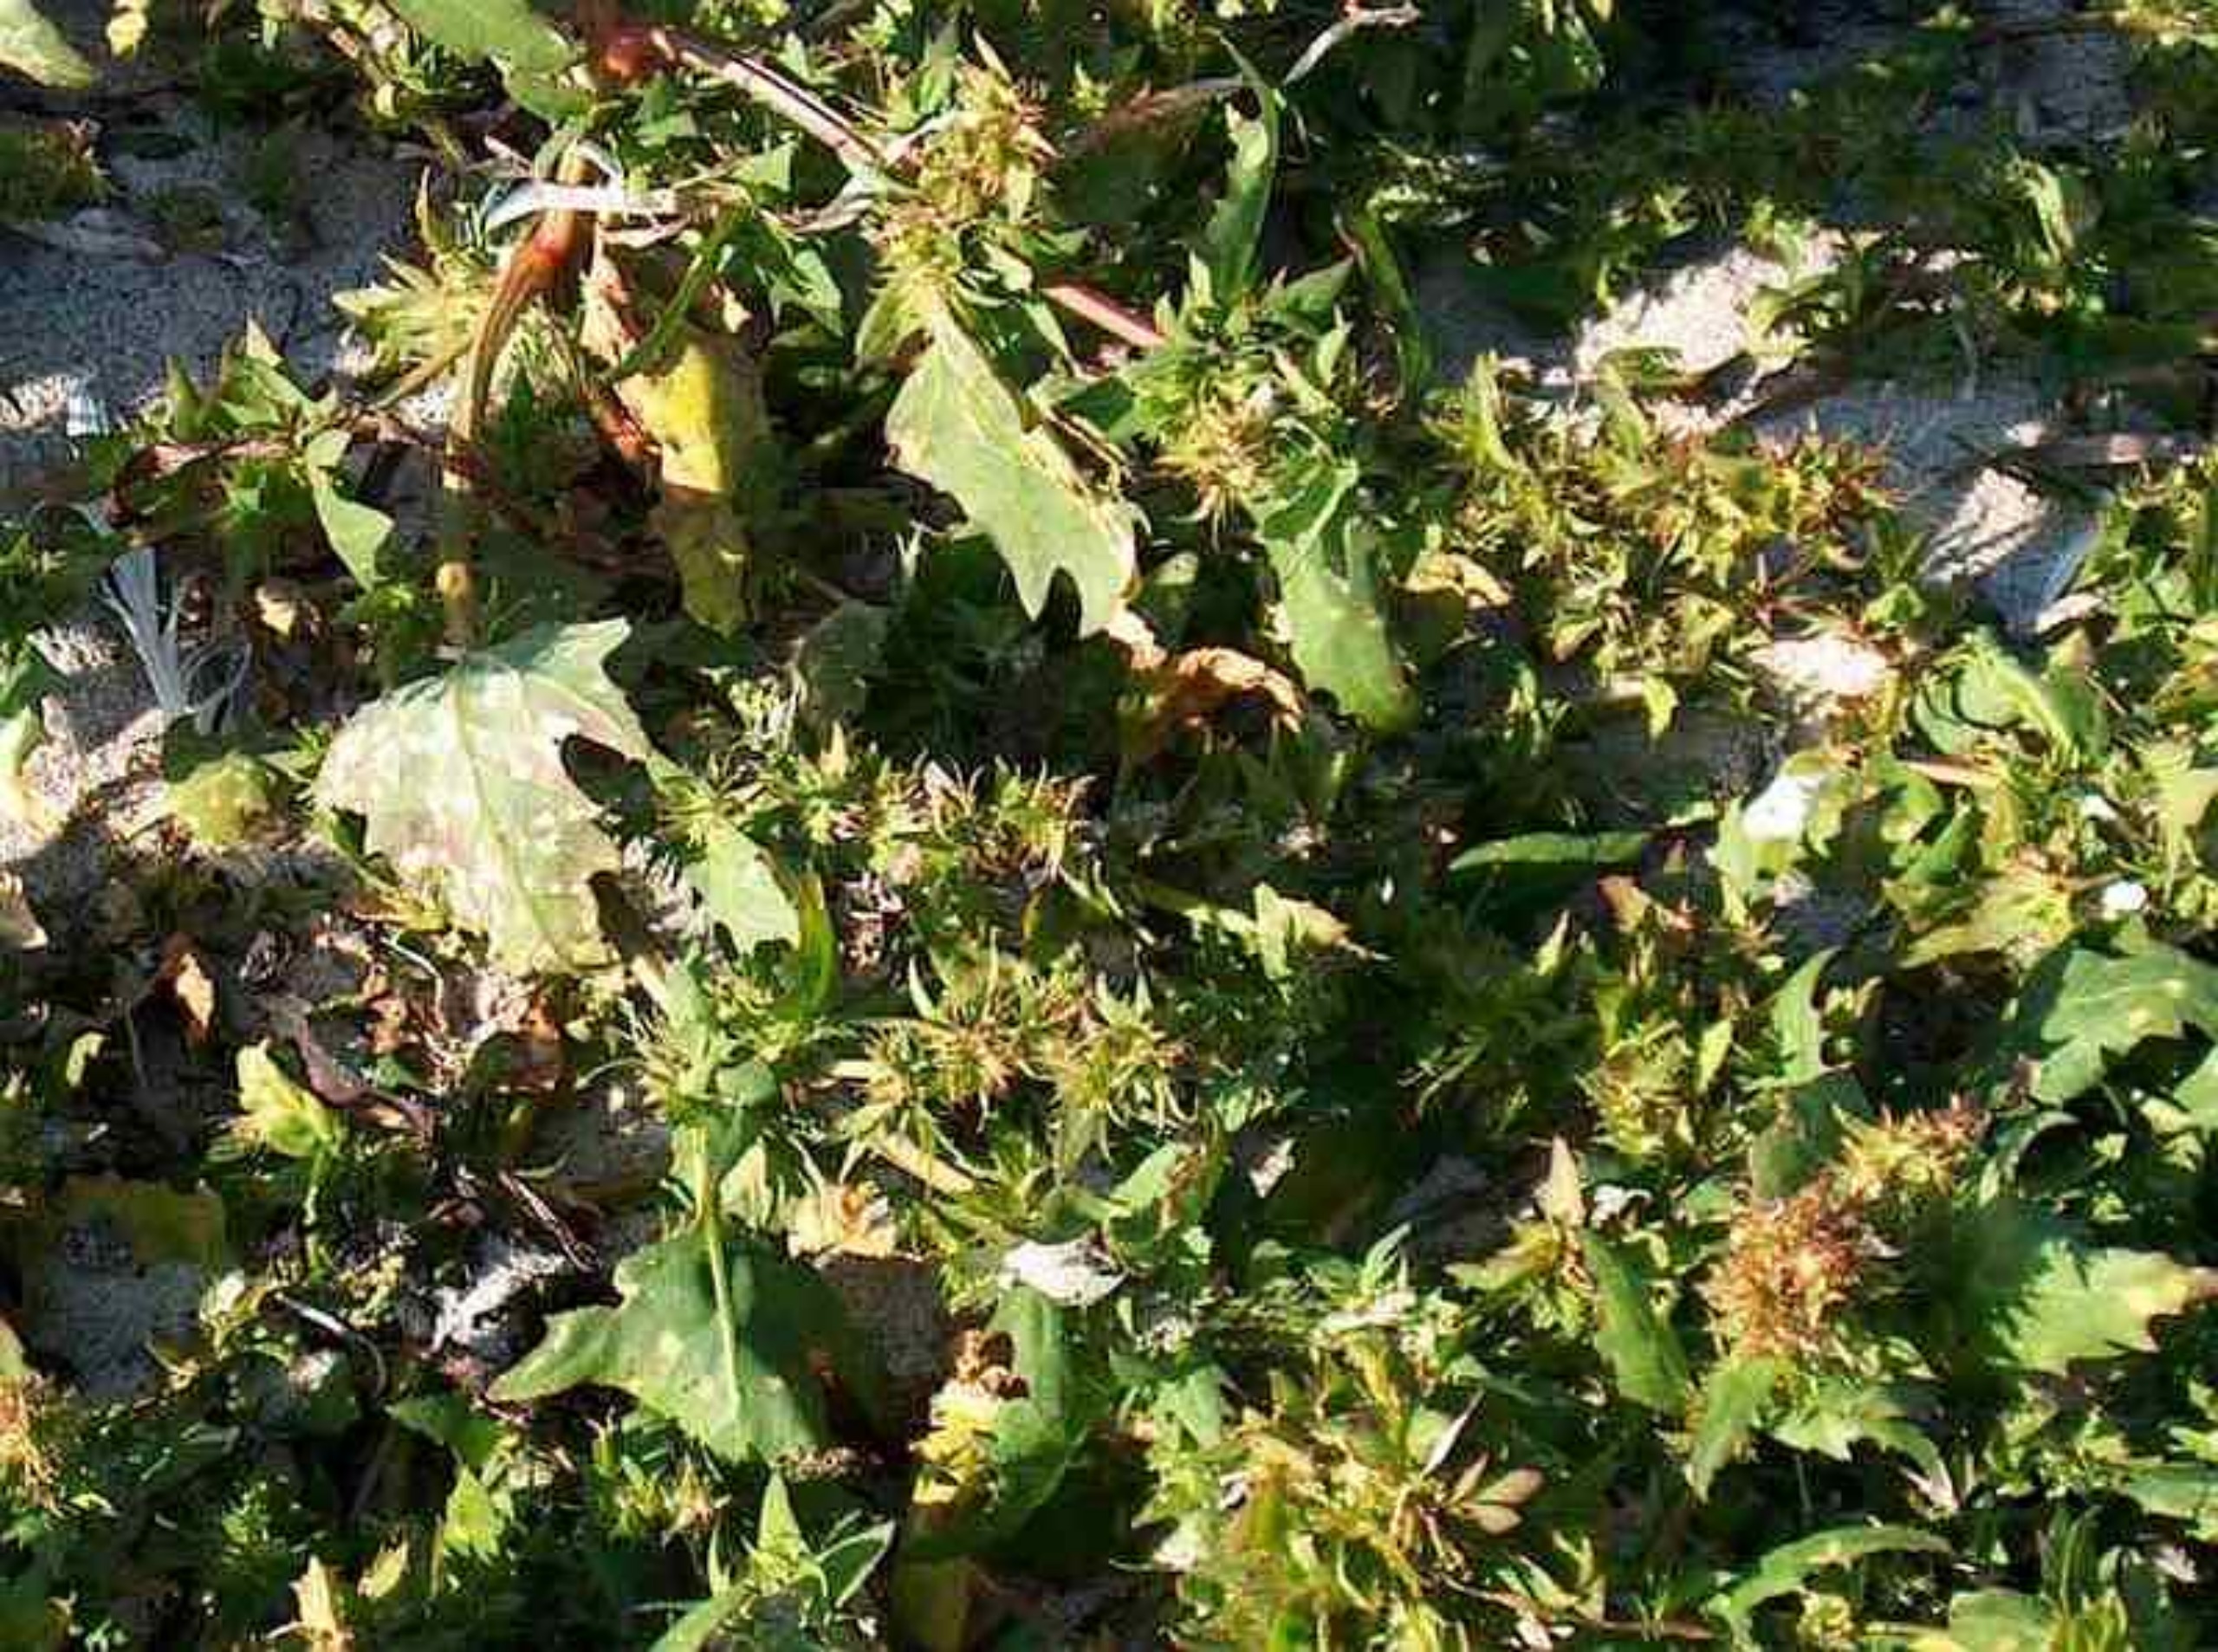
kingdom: Plantae
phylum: Tracheophyta
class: Magnoliopsida
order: Caryophyllales
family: Amaranthaceae
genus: Atriplex
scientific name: Atriplex calotheca
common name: Skønbægret mælde
